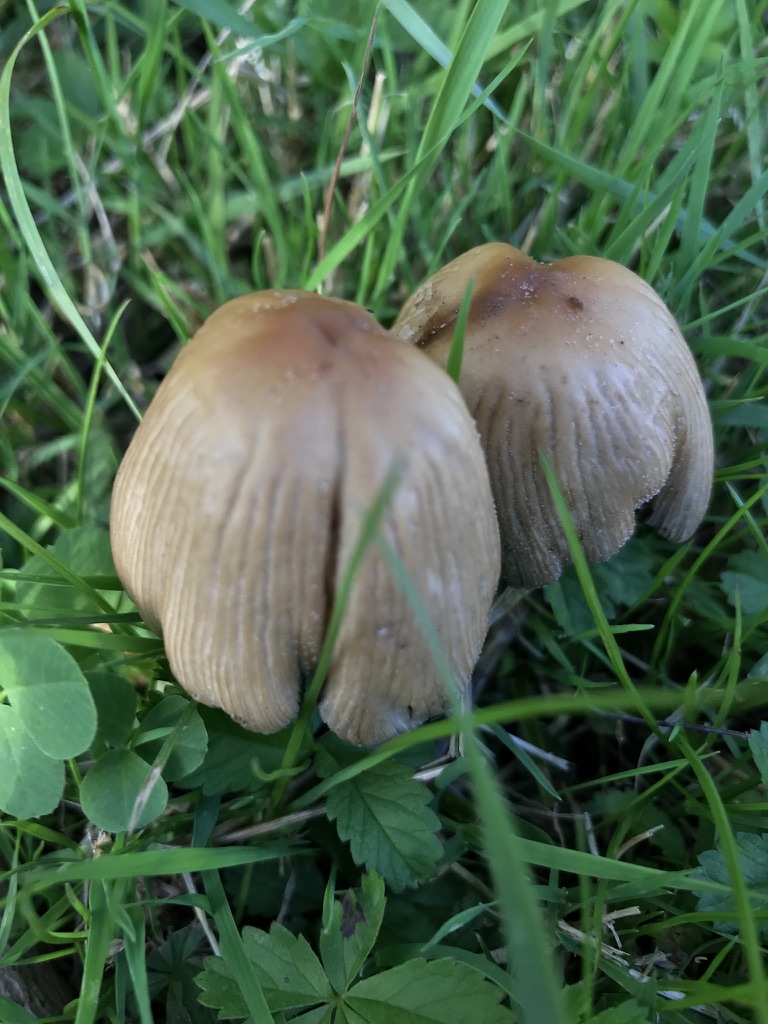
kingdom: Fungi
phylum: Basidiomycota
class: Agaricomycetes
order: Agaricales
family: Psathyrellaceae
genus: Coprinopsis
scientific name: Coprinopsis atramentaria
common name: almindelig blækhat
